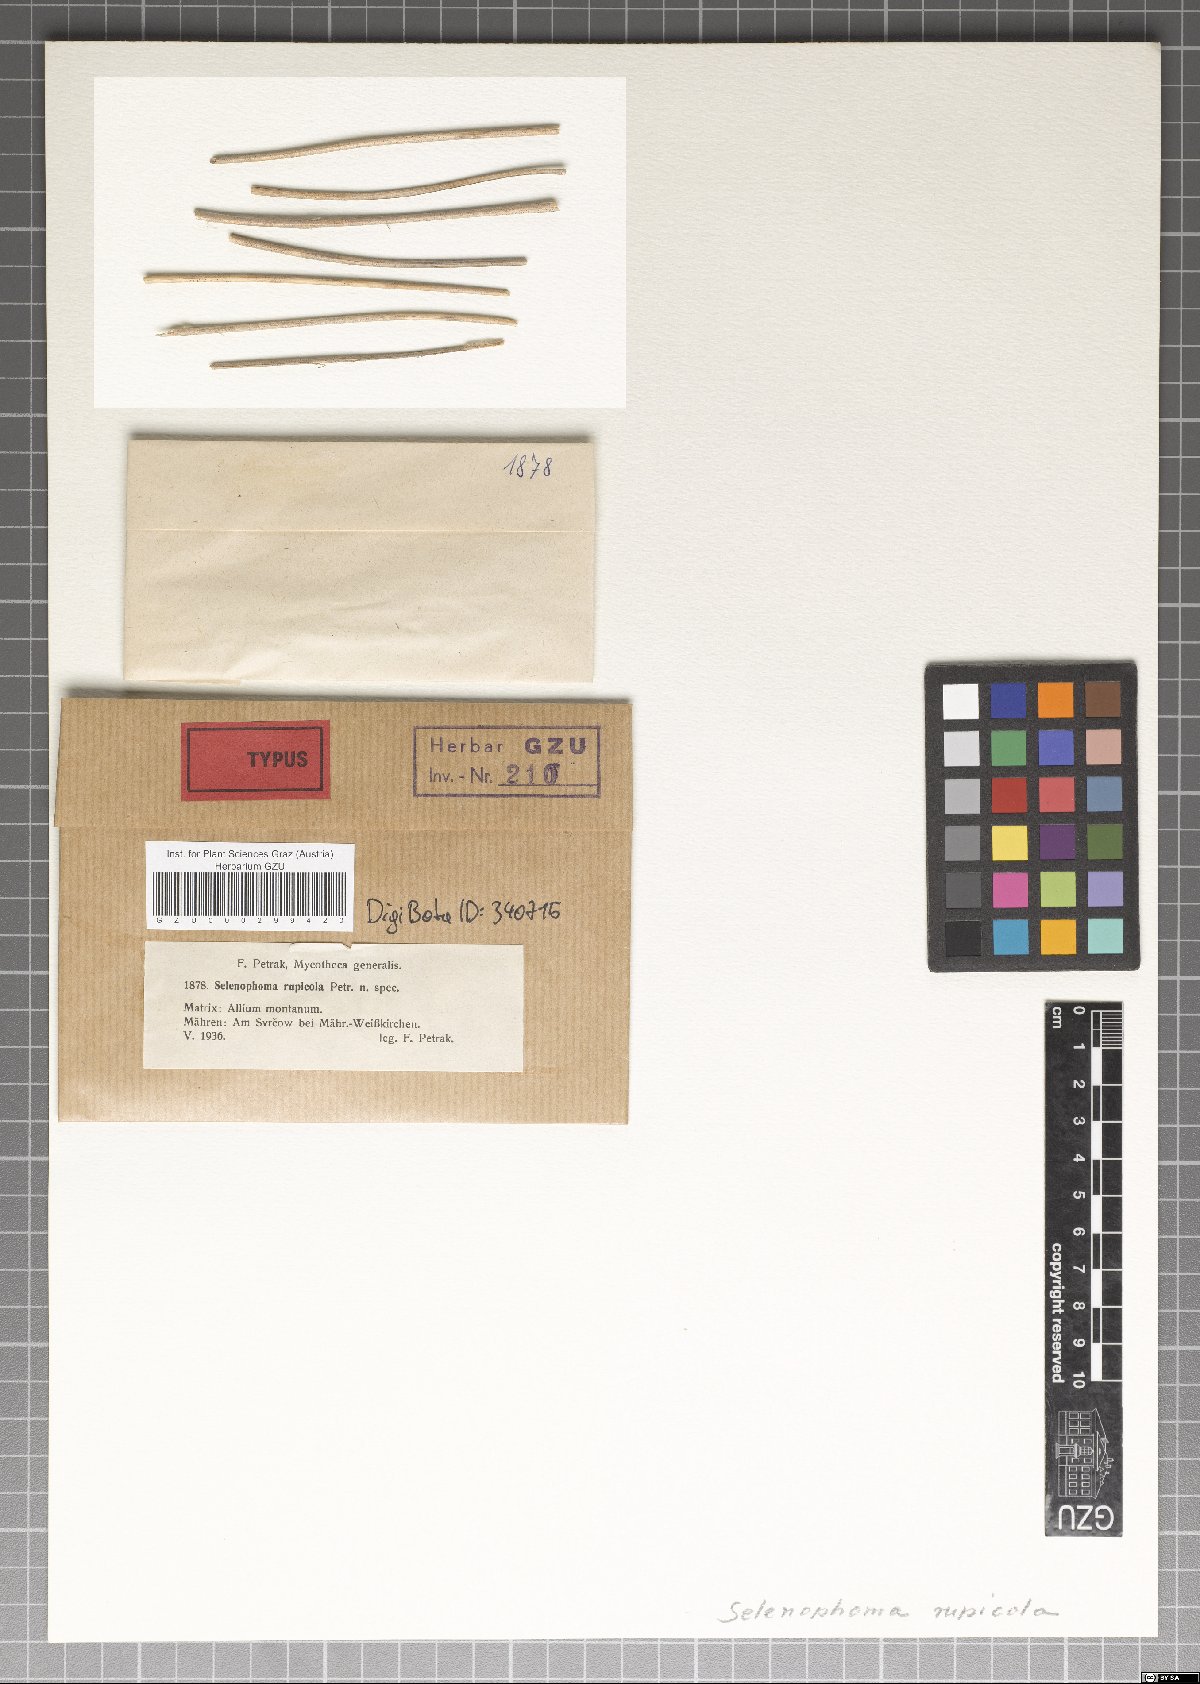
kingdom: Fungi
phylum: Ascomycota
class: Dothideomycetes
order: Dothideales
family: Saccotheciaceae
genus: Selenophoma
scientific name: Selenophoma rupicola
